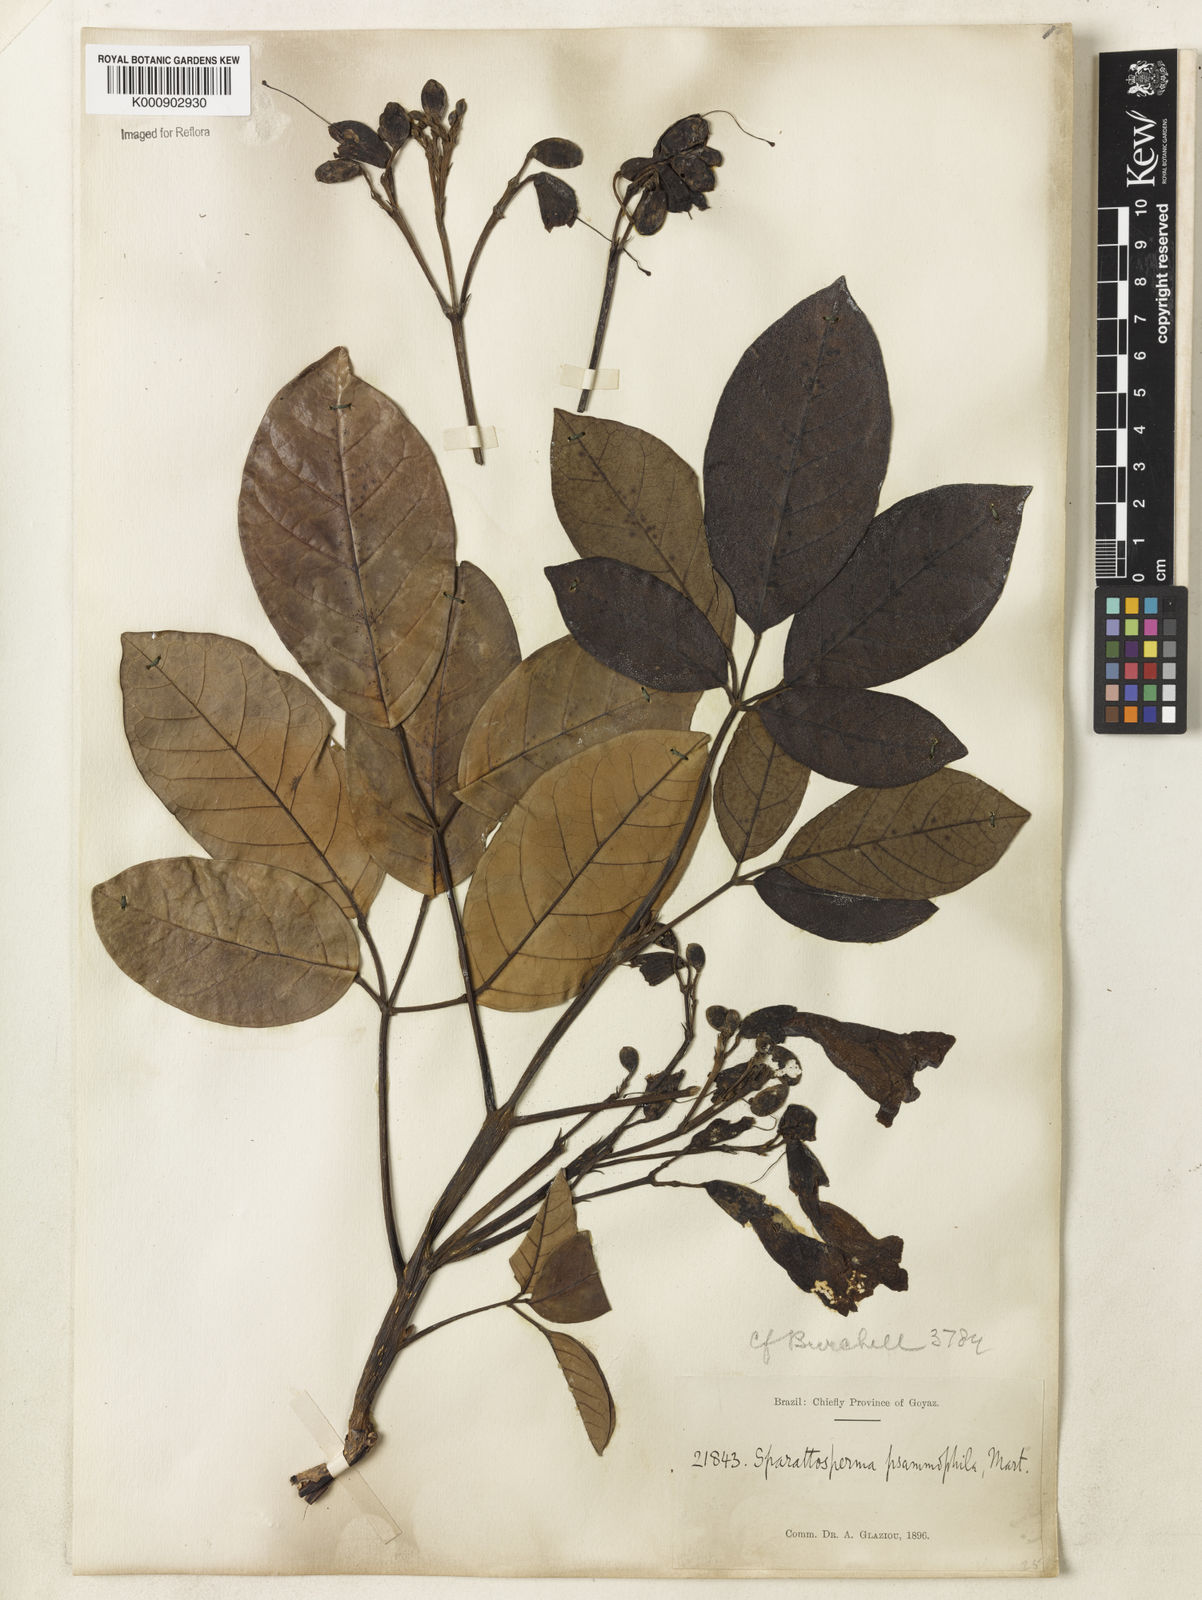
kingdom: Plantae
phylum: Tracheophyta
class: Magnoliopsida
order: Lamiales
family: Bignoniaceae
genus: Tabebuia
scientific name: Tabebuia insignis
